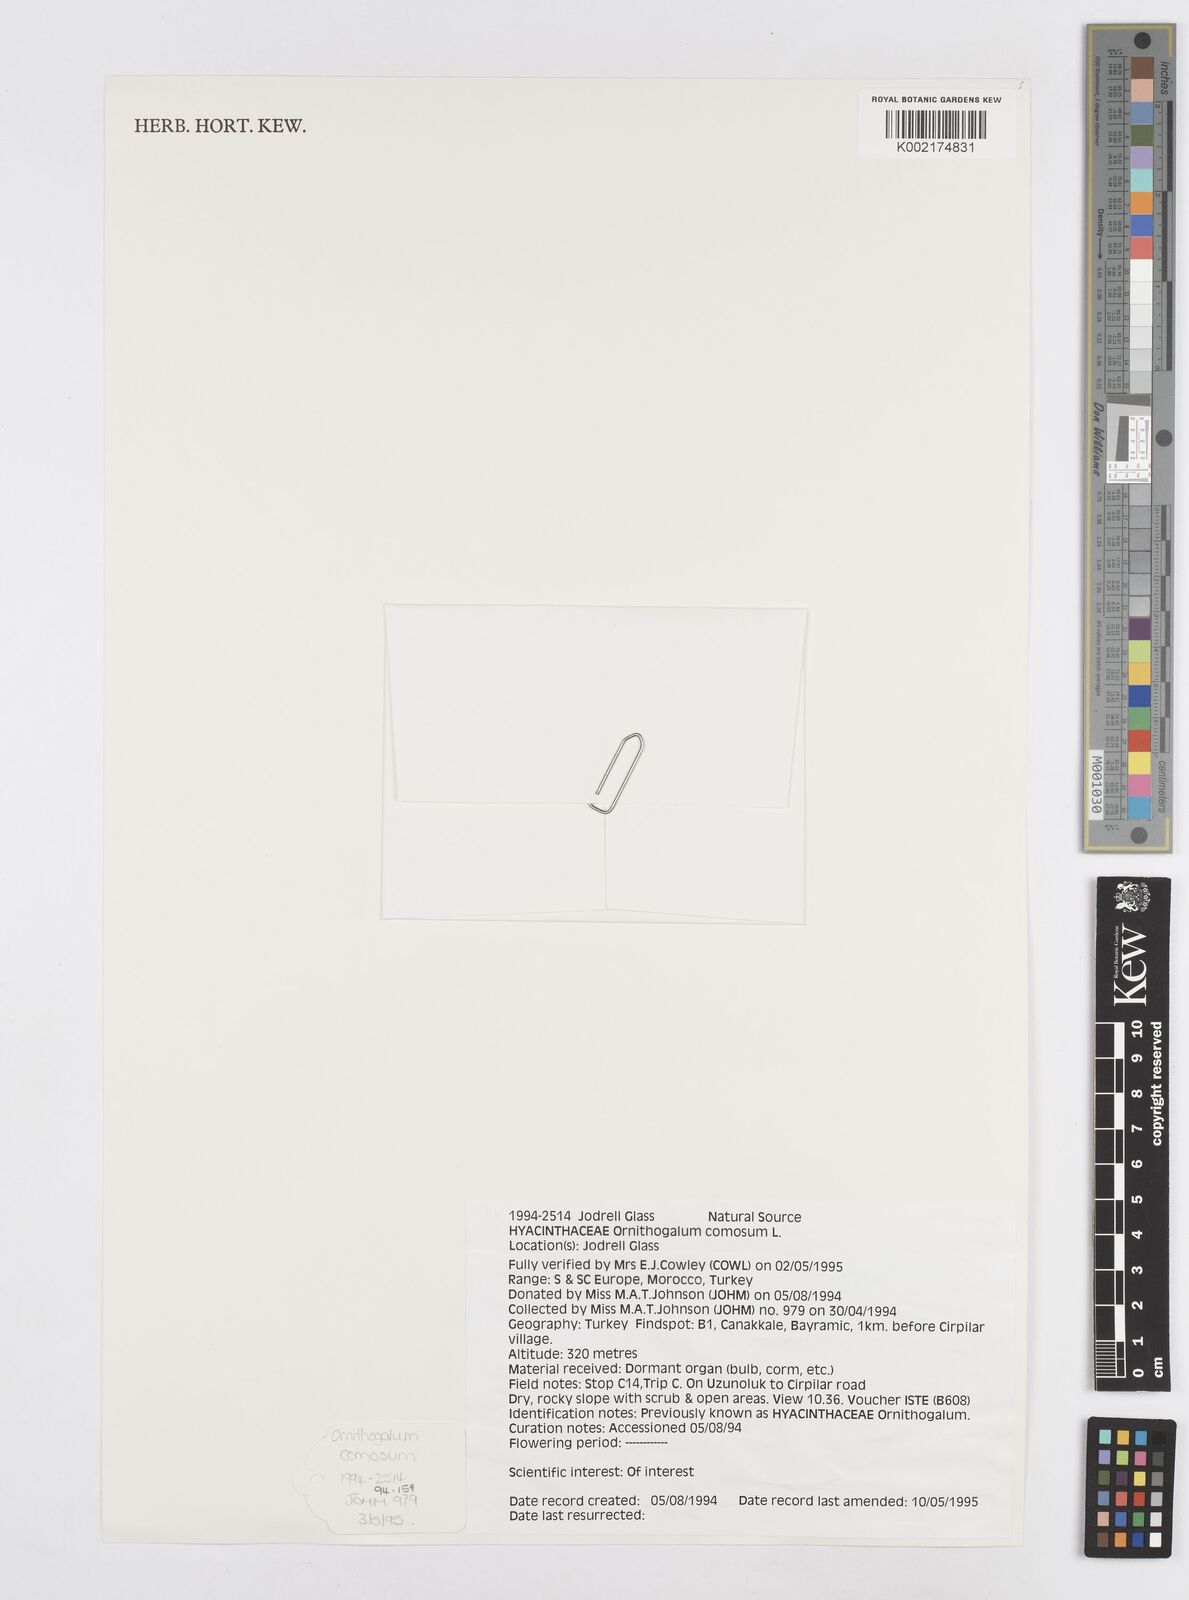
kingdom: Plantae
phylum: Tracheophyta
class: Liliopsida
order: Asparagales
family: Asparagaceae
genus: Ornithogalum
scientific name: Ornithogalum comosum
